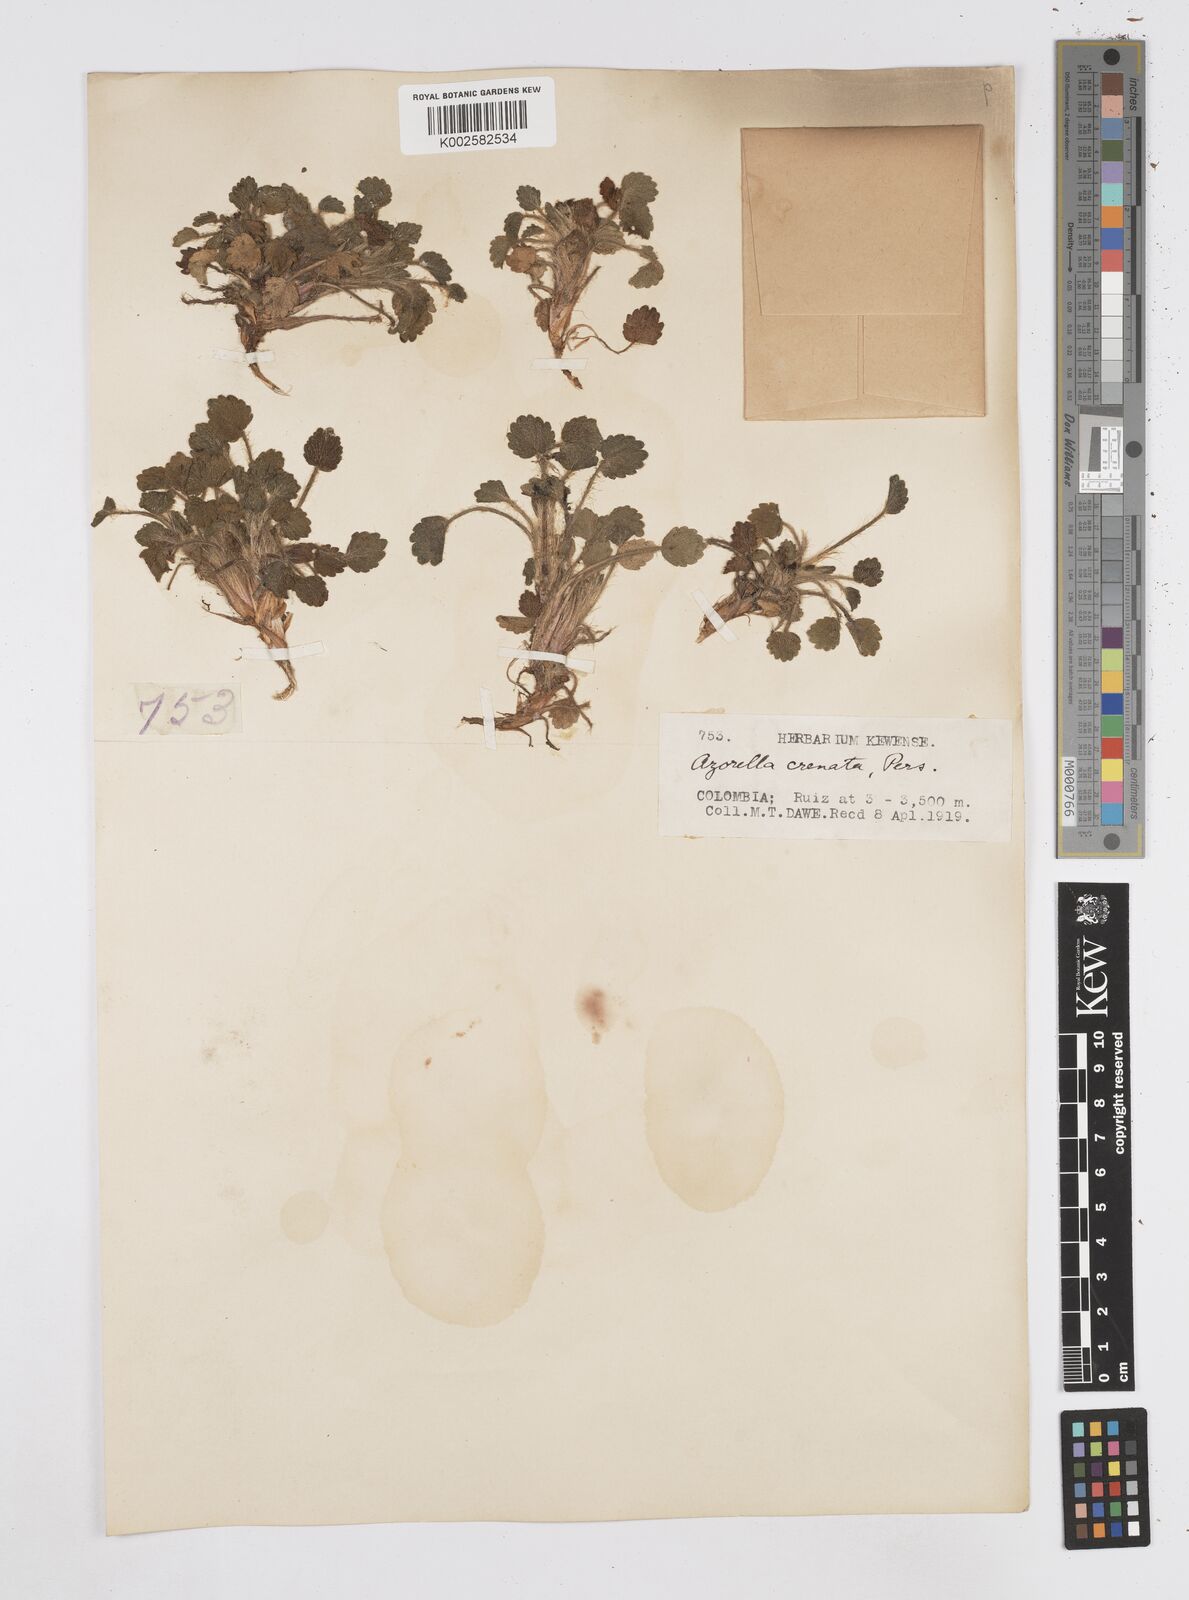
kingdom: Plantae
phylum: Tracheophyta
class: Magnoliopsida
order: Apiales
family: Apiaceae
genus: Azorella
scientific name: Azorella crenata
